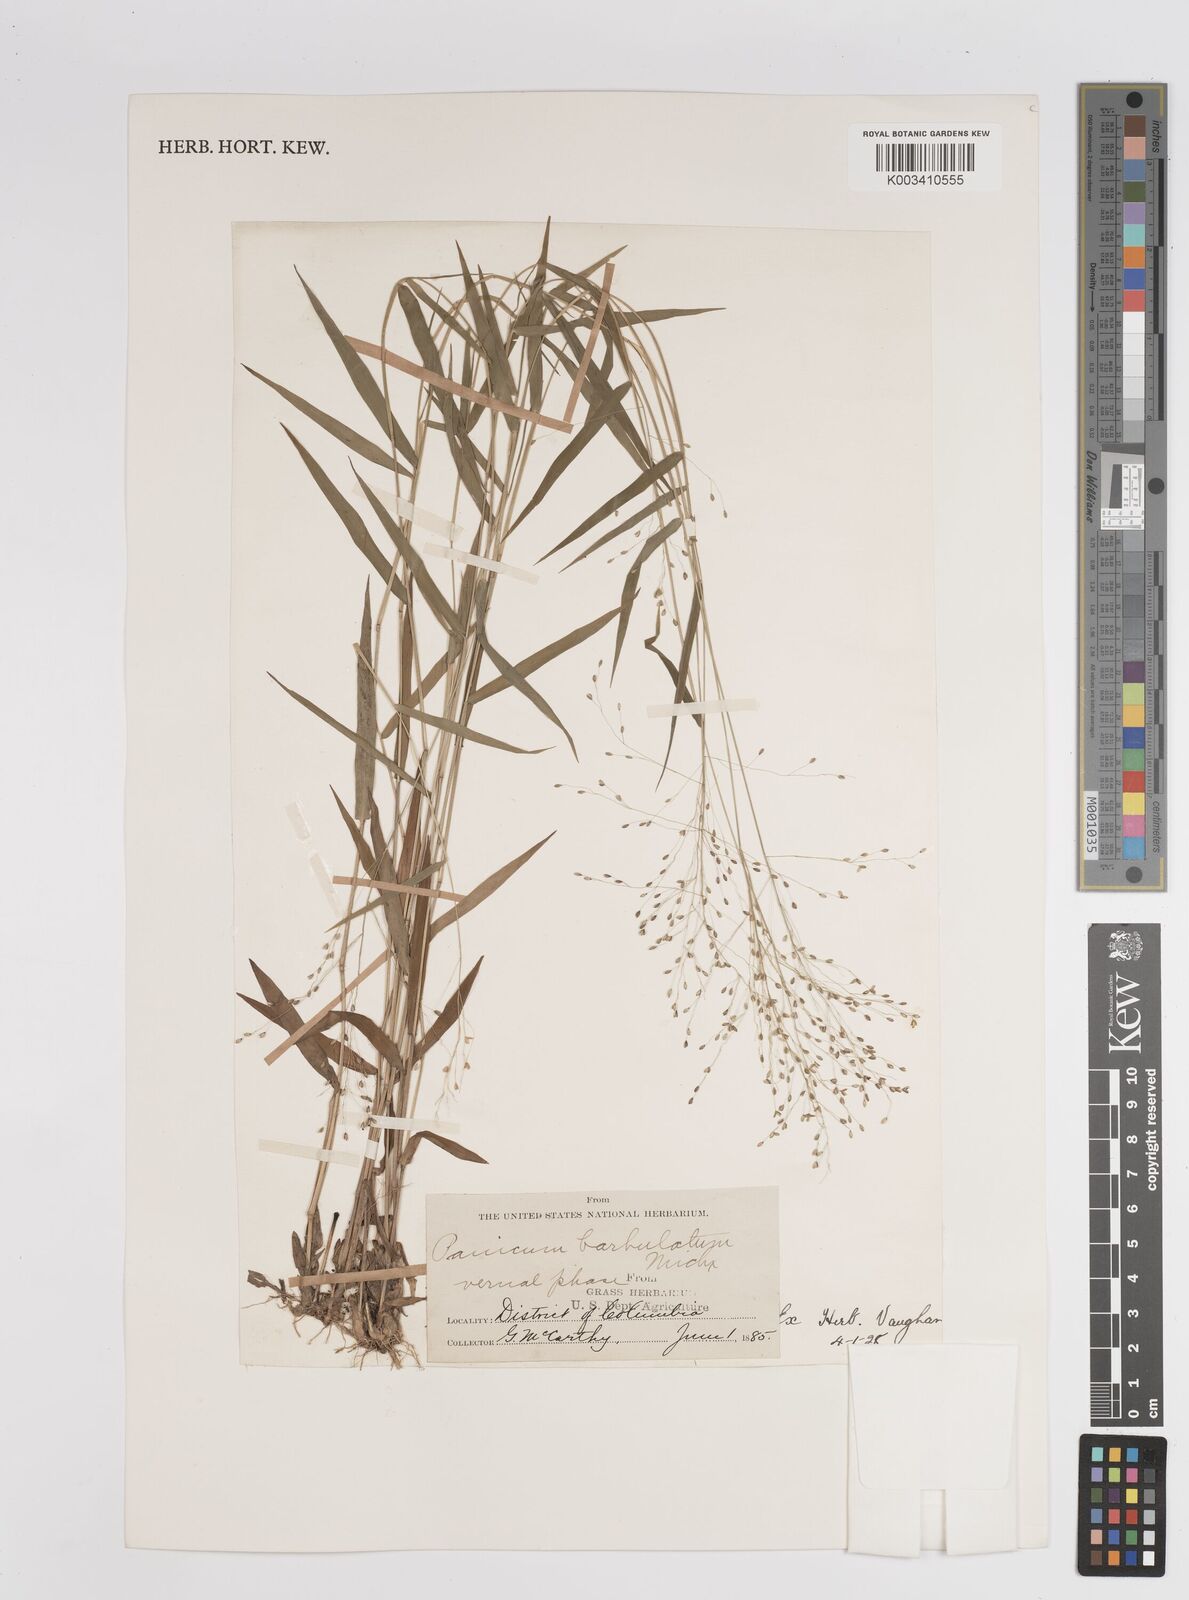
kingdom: Plantae
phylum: Tracheophyta
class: Liliopsida
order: Poales
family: Poaceae
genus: Dichanthelium
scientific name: Dichanthelium dichotomum
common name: Cypress panicgrass
